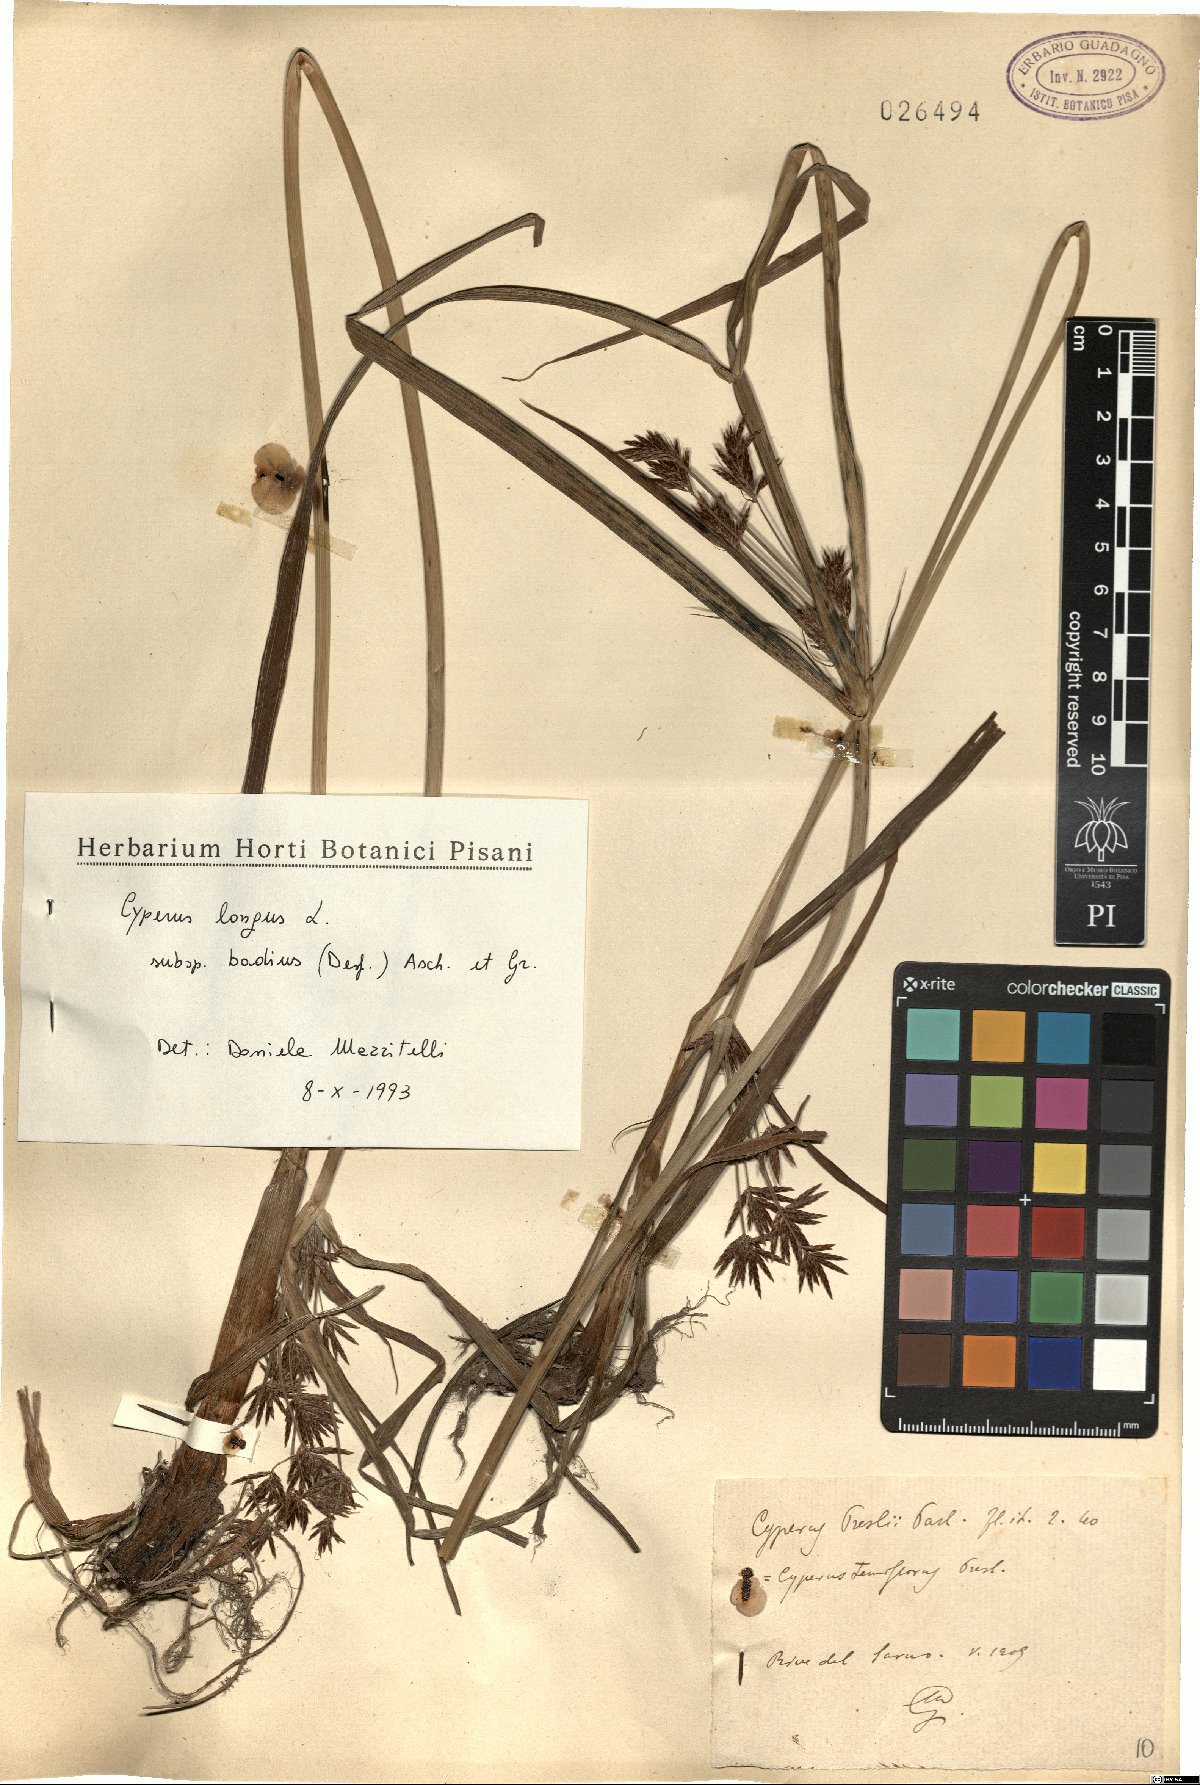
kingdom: Plantae
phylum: Tracheophyta
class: Liliopsida
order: Poales
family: Cyperaceae
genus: Cyperus
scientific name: Cyperus longus
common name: Galingale
